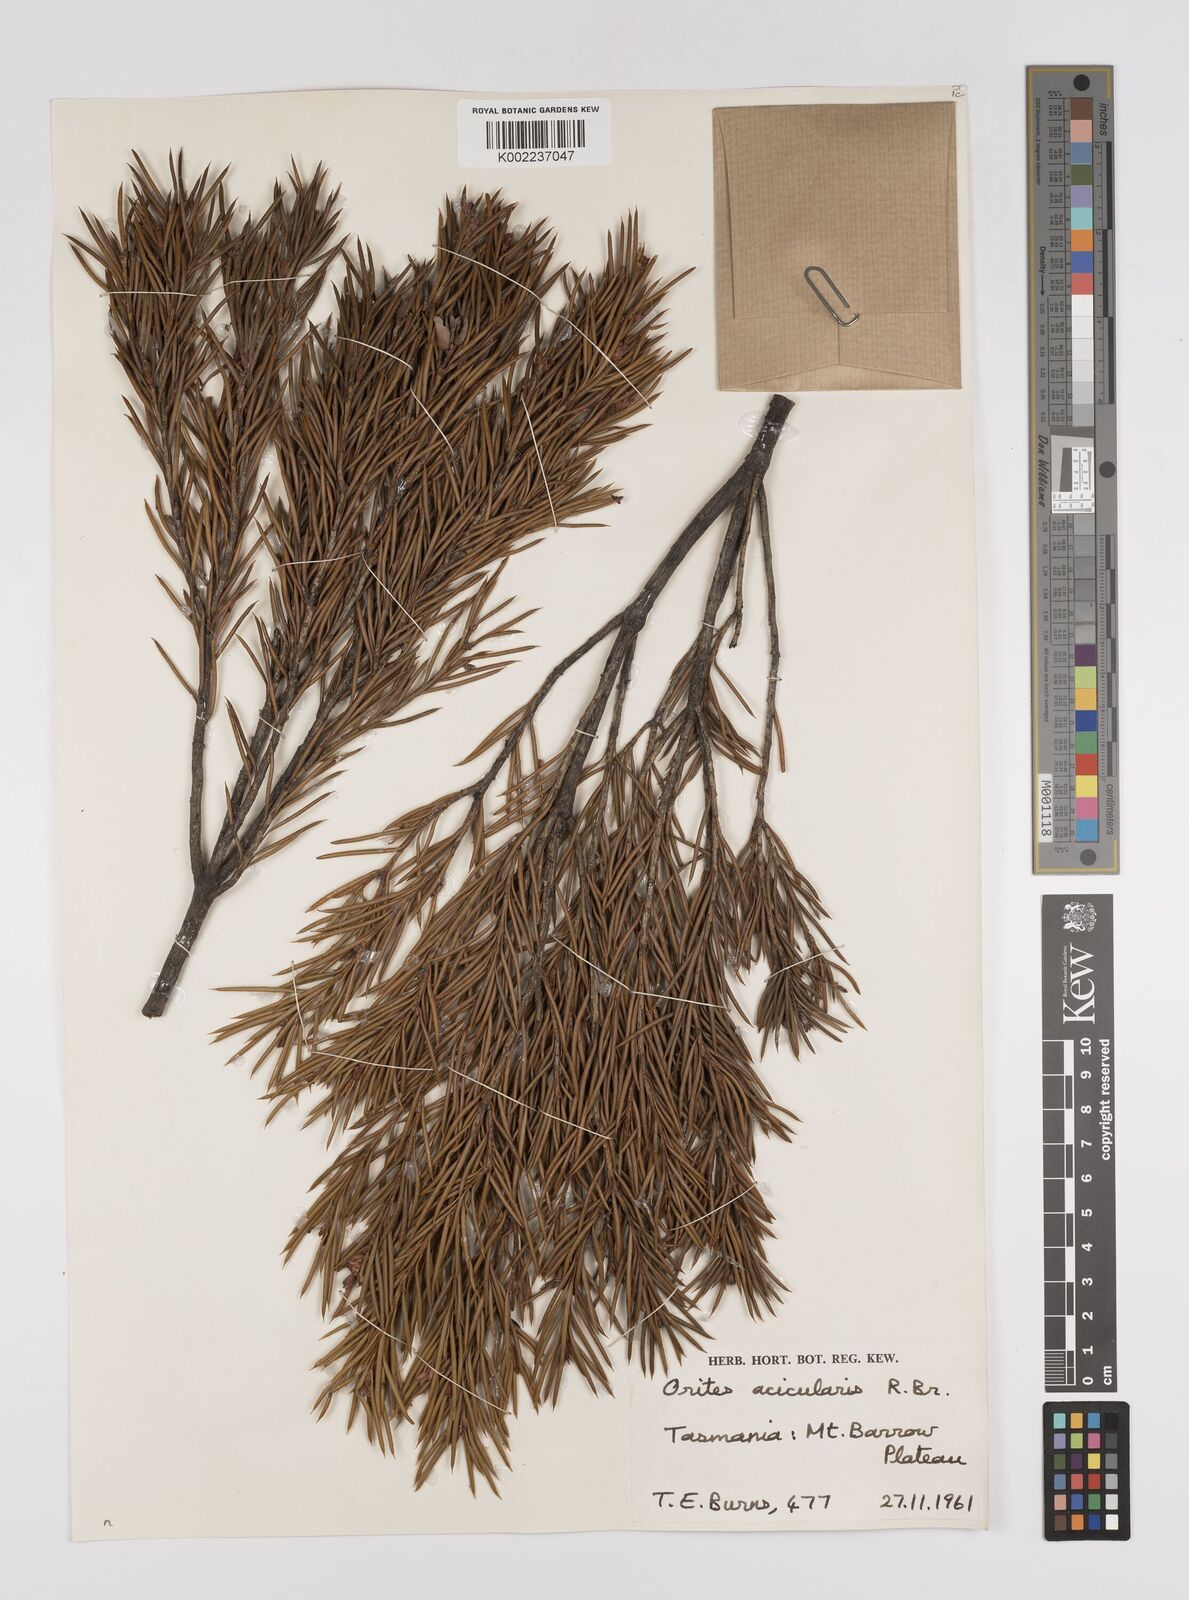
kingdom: Plantae
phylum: Tracheophyta
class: Magnoliopsida
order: Proteales
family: Proteaceae
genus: Orites
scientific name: Orites acicularis
